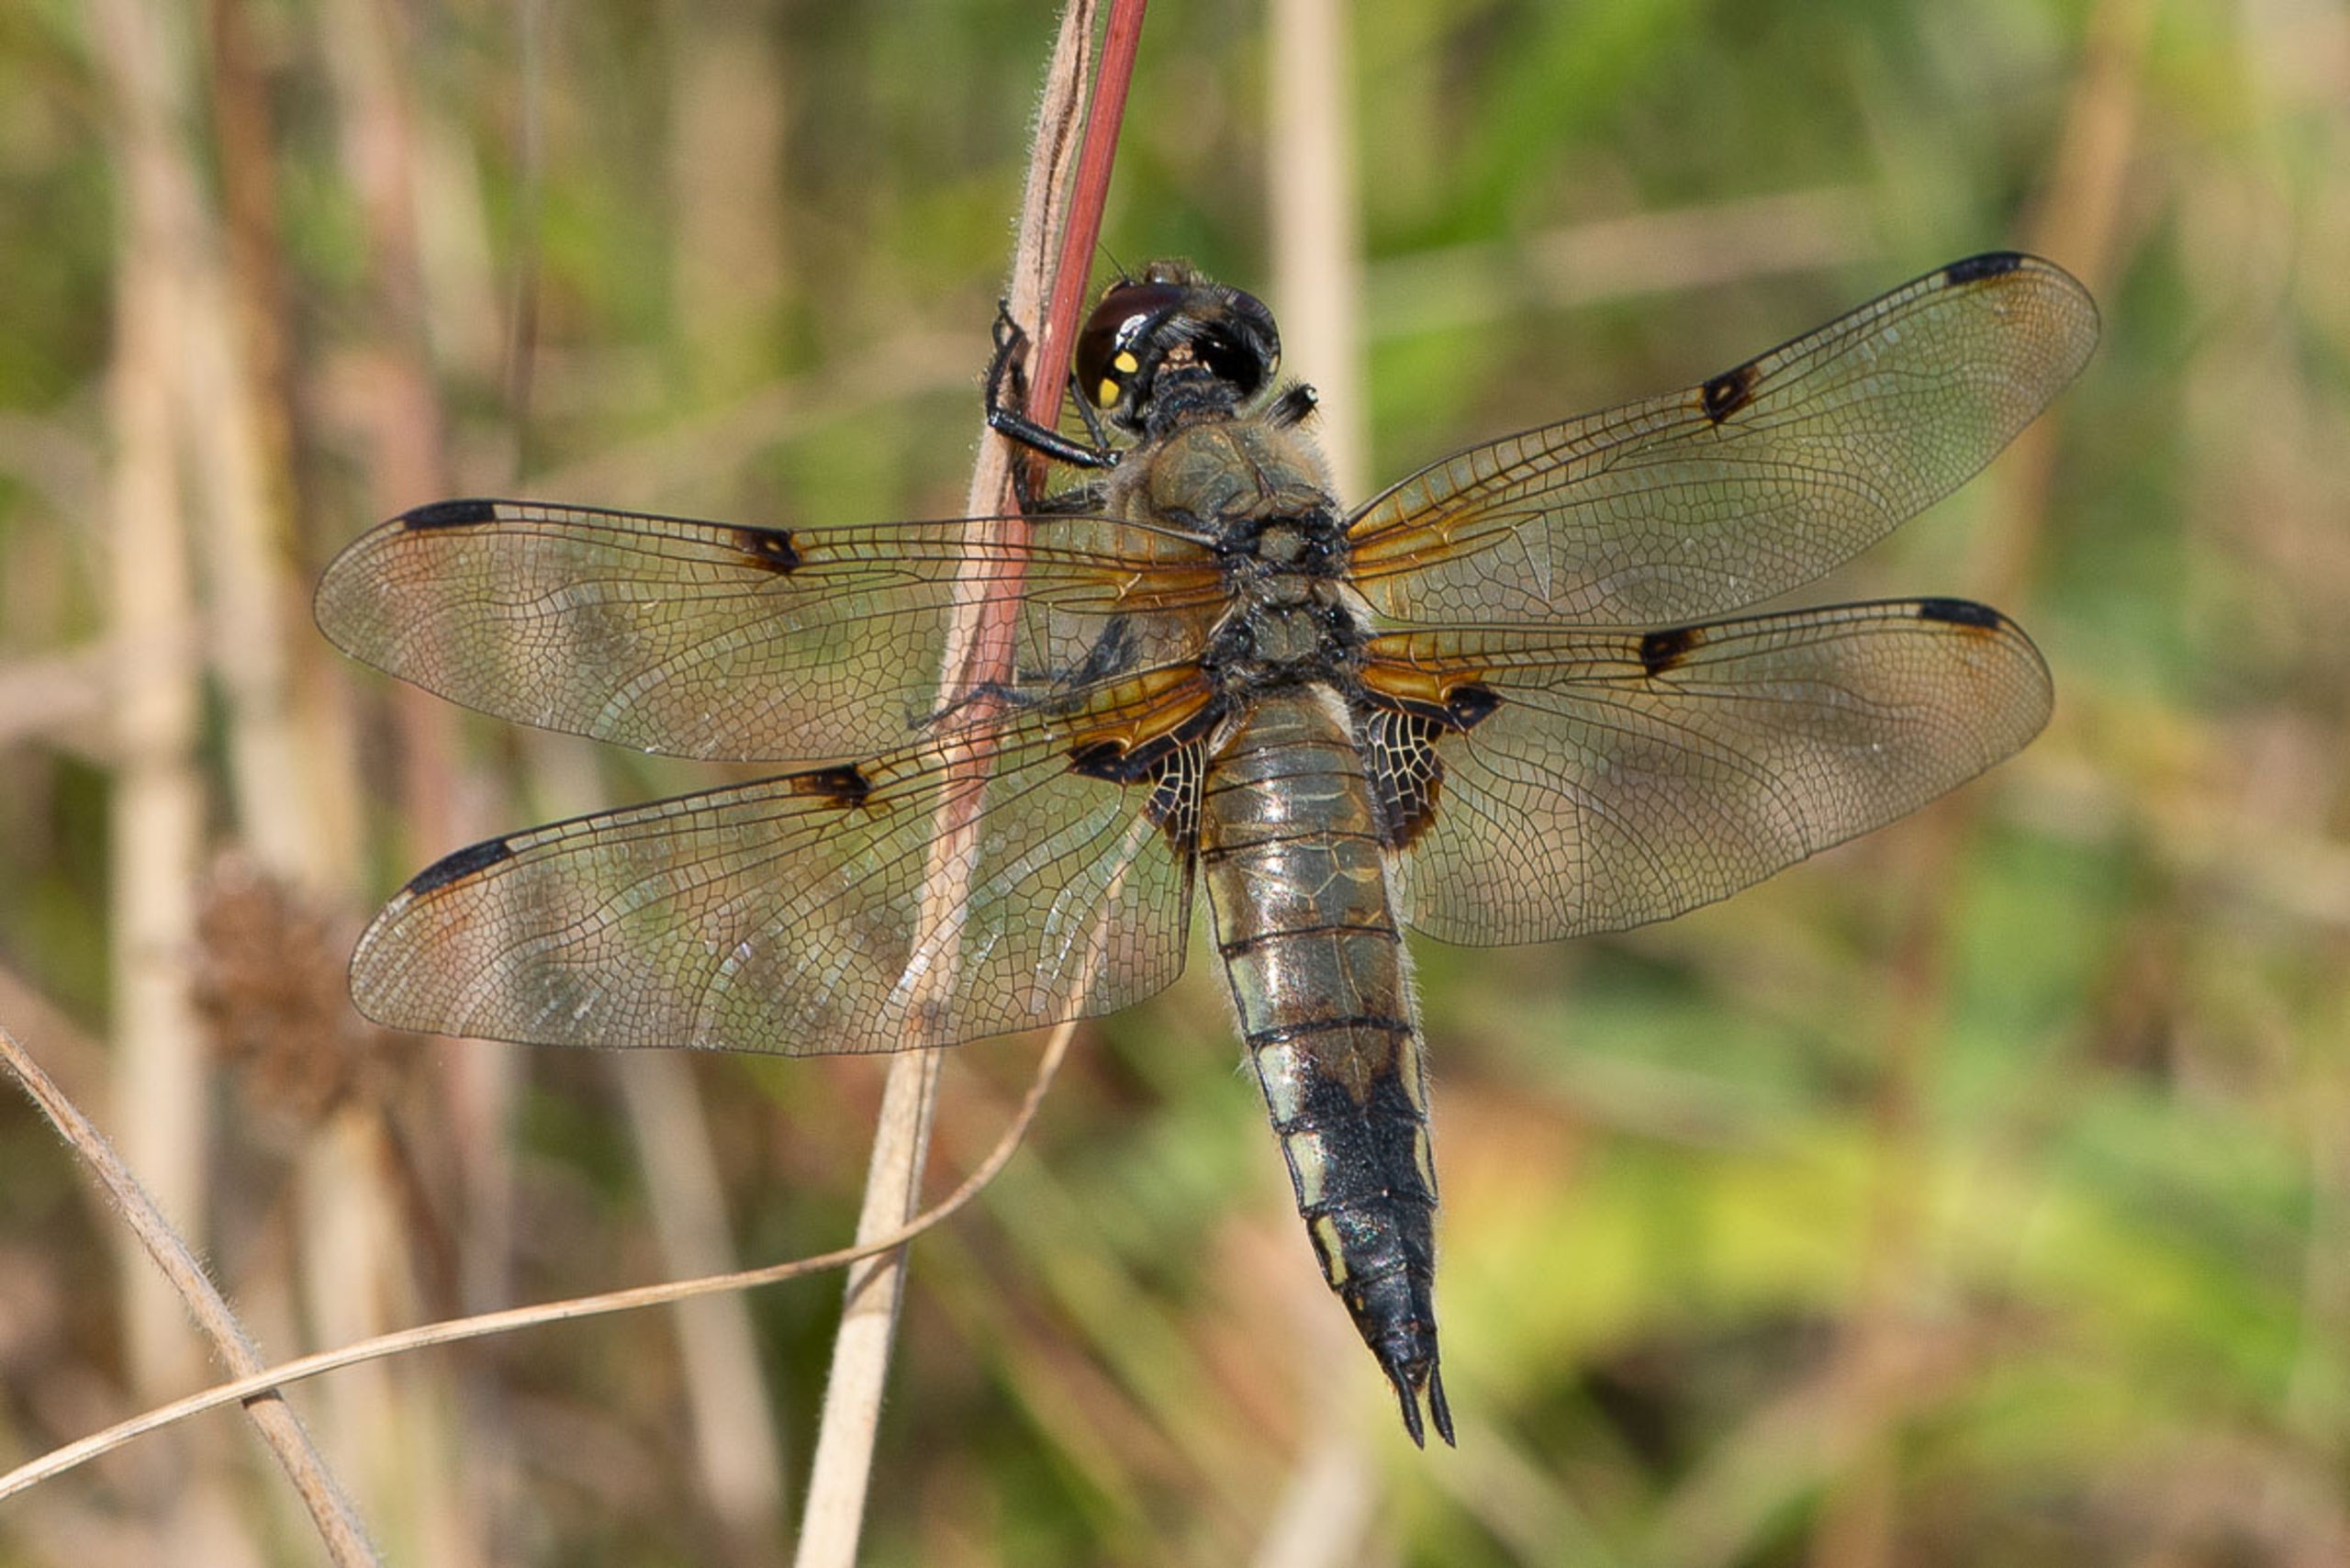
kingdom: Animalia
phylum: Arthropoda
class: Insecta
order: Odonata
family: Libellulidae
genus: Libellula
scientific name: Libellula quadrimaculata
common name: Fireplettet libel
